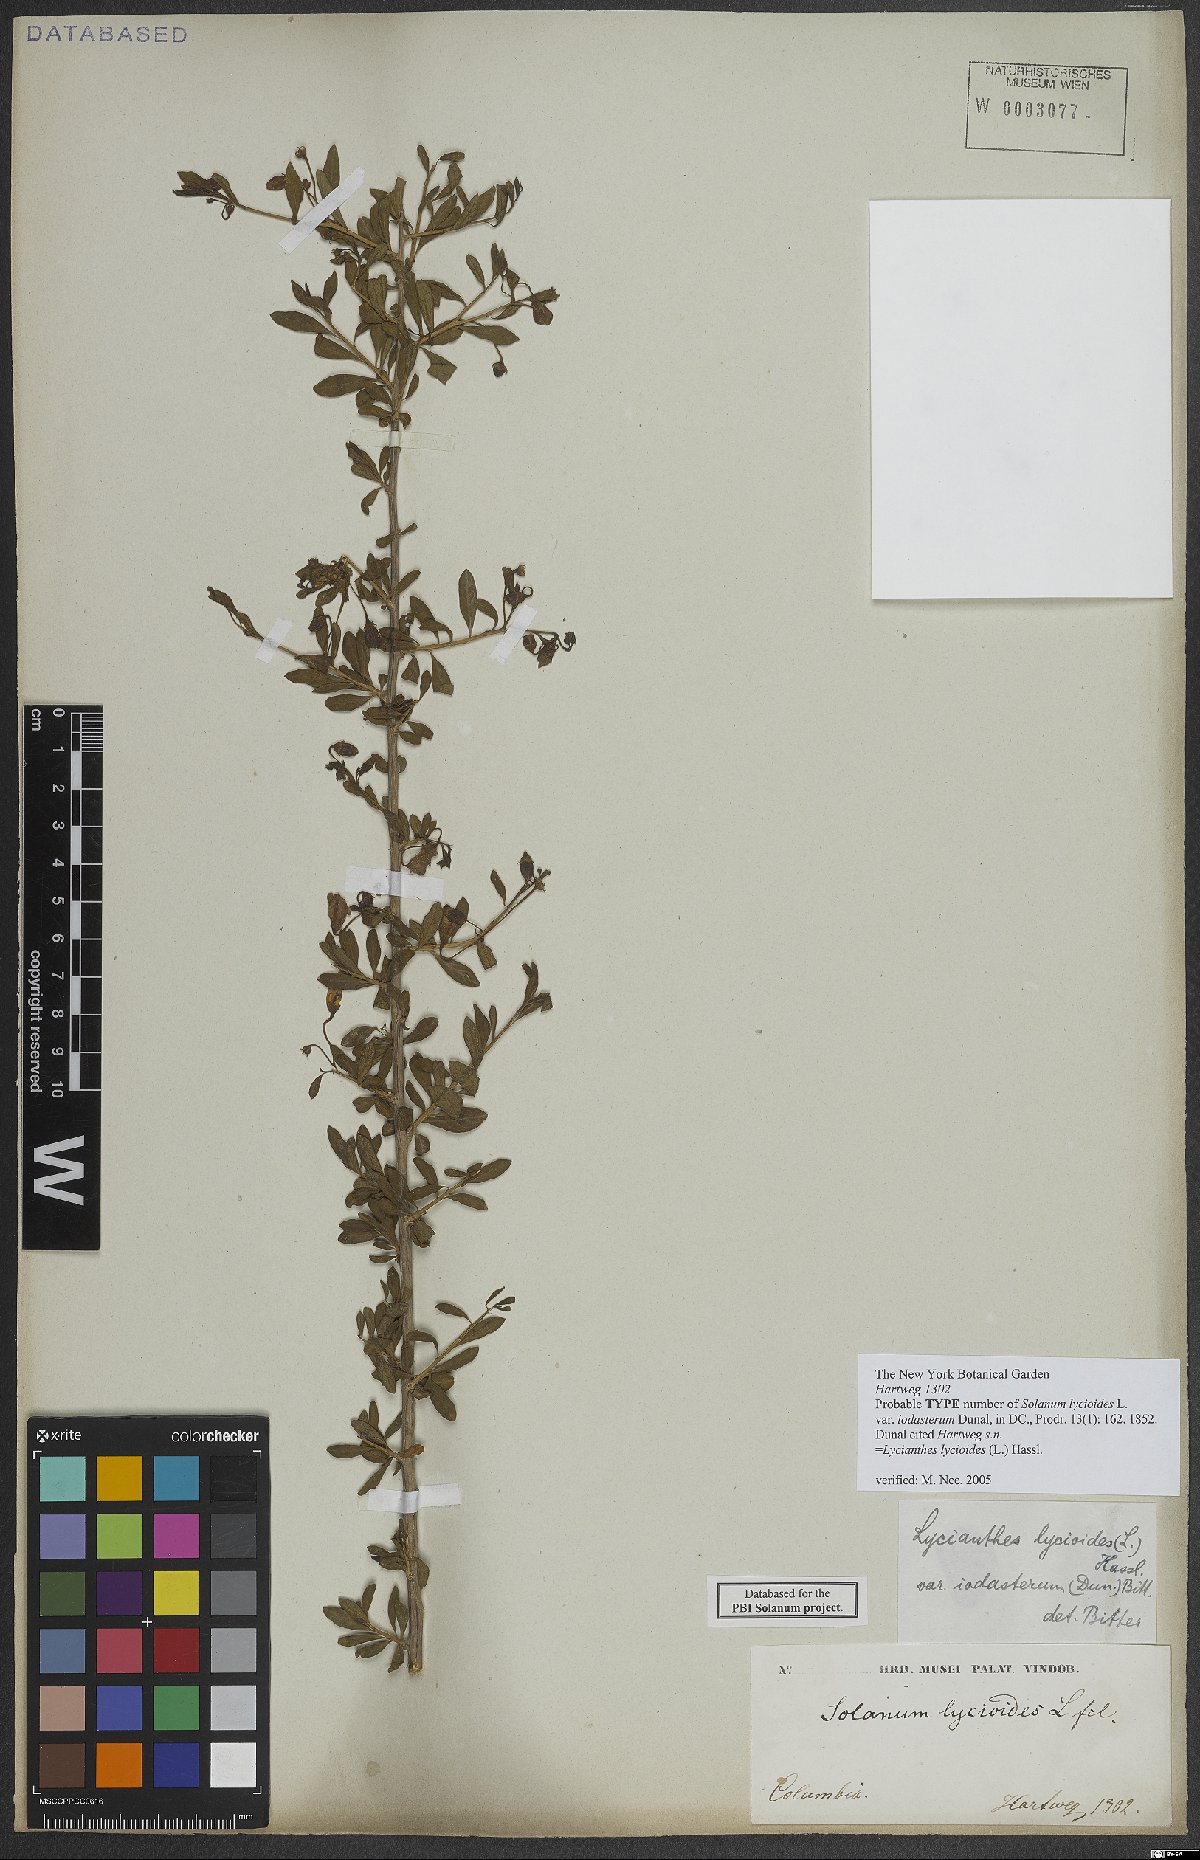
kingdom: Plantae
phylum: Tracheophyta
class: Magnoliopsida
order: Solanales
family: Solanaceae
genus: Lycianthes
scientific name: Lycianthes lycioides
